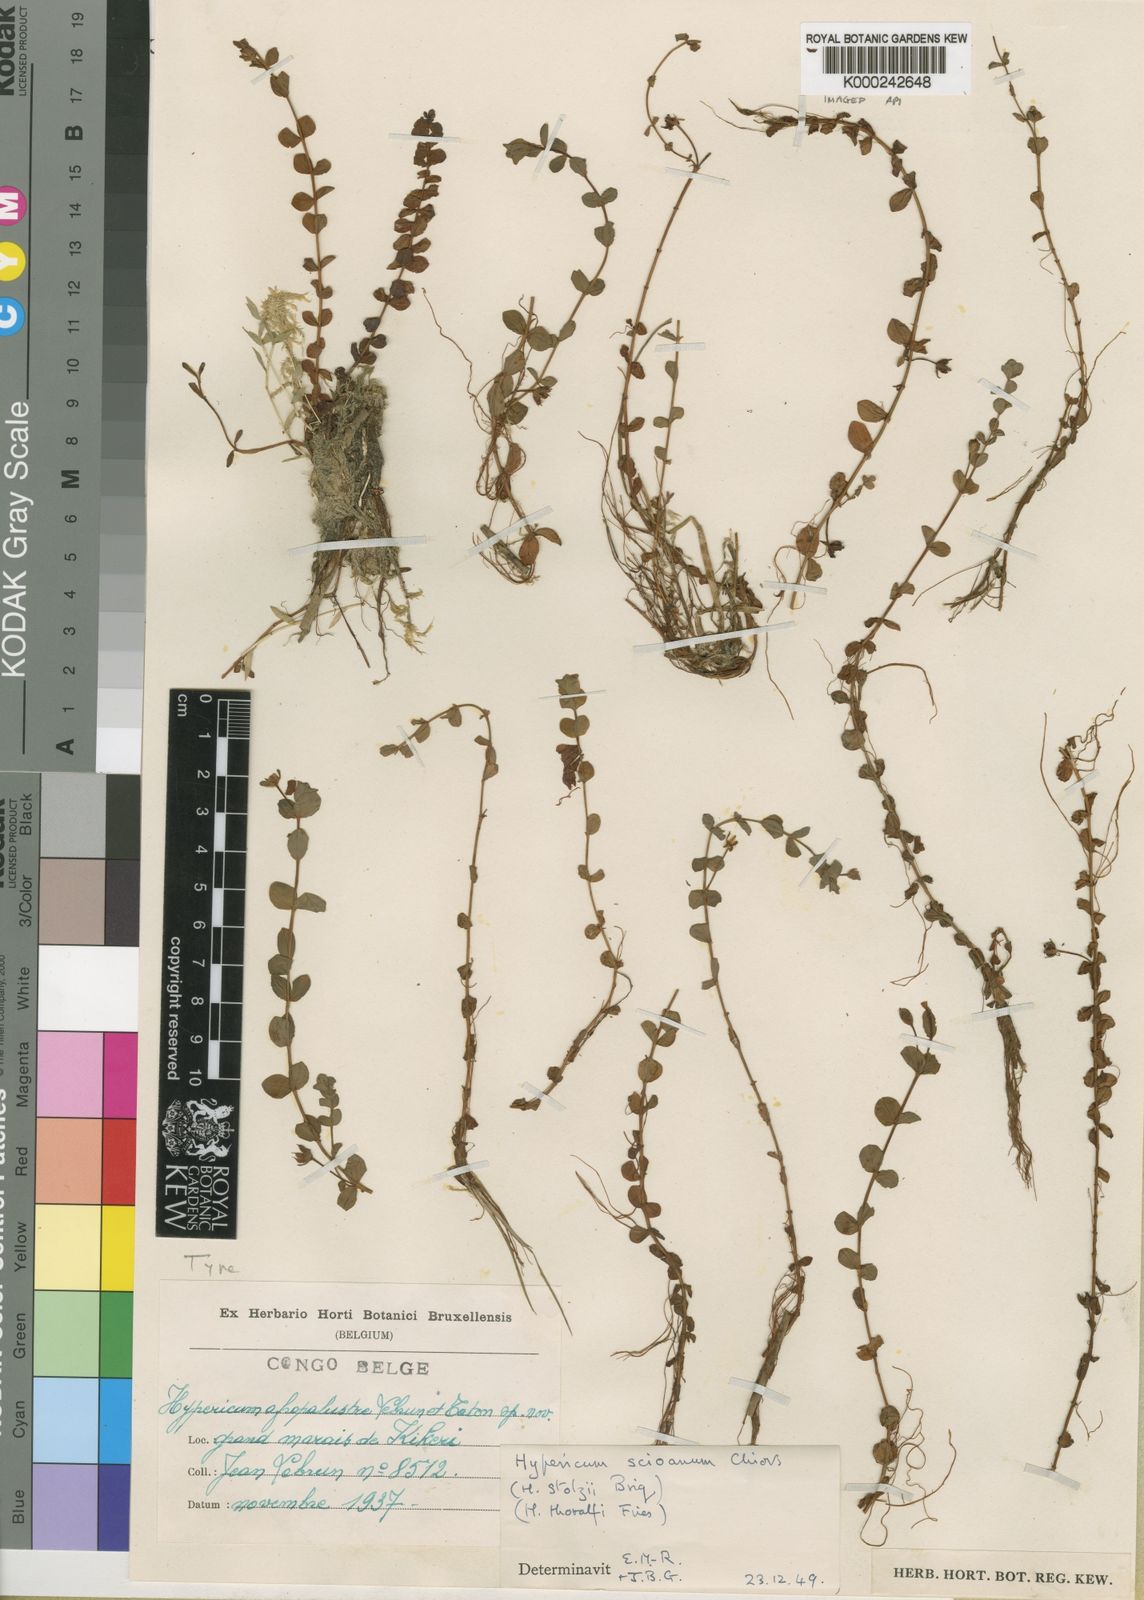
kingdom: Plantae
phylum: Tracheophyta
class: Magnoliopsida
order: Malpighiales
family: Hypericaceae
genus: Hypericum
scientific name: Hypericum scioanum
